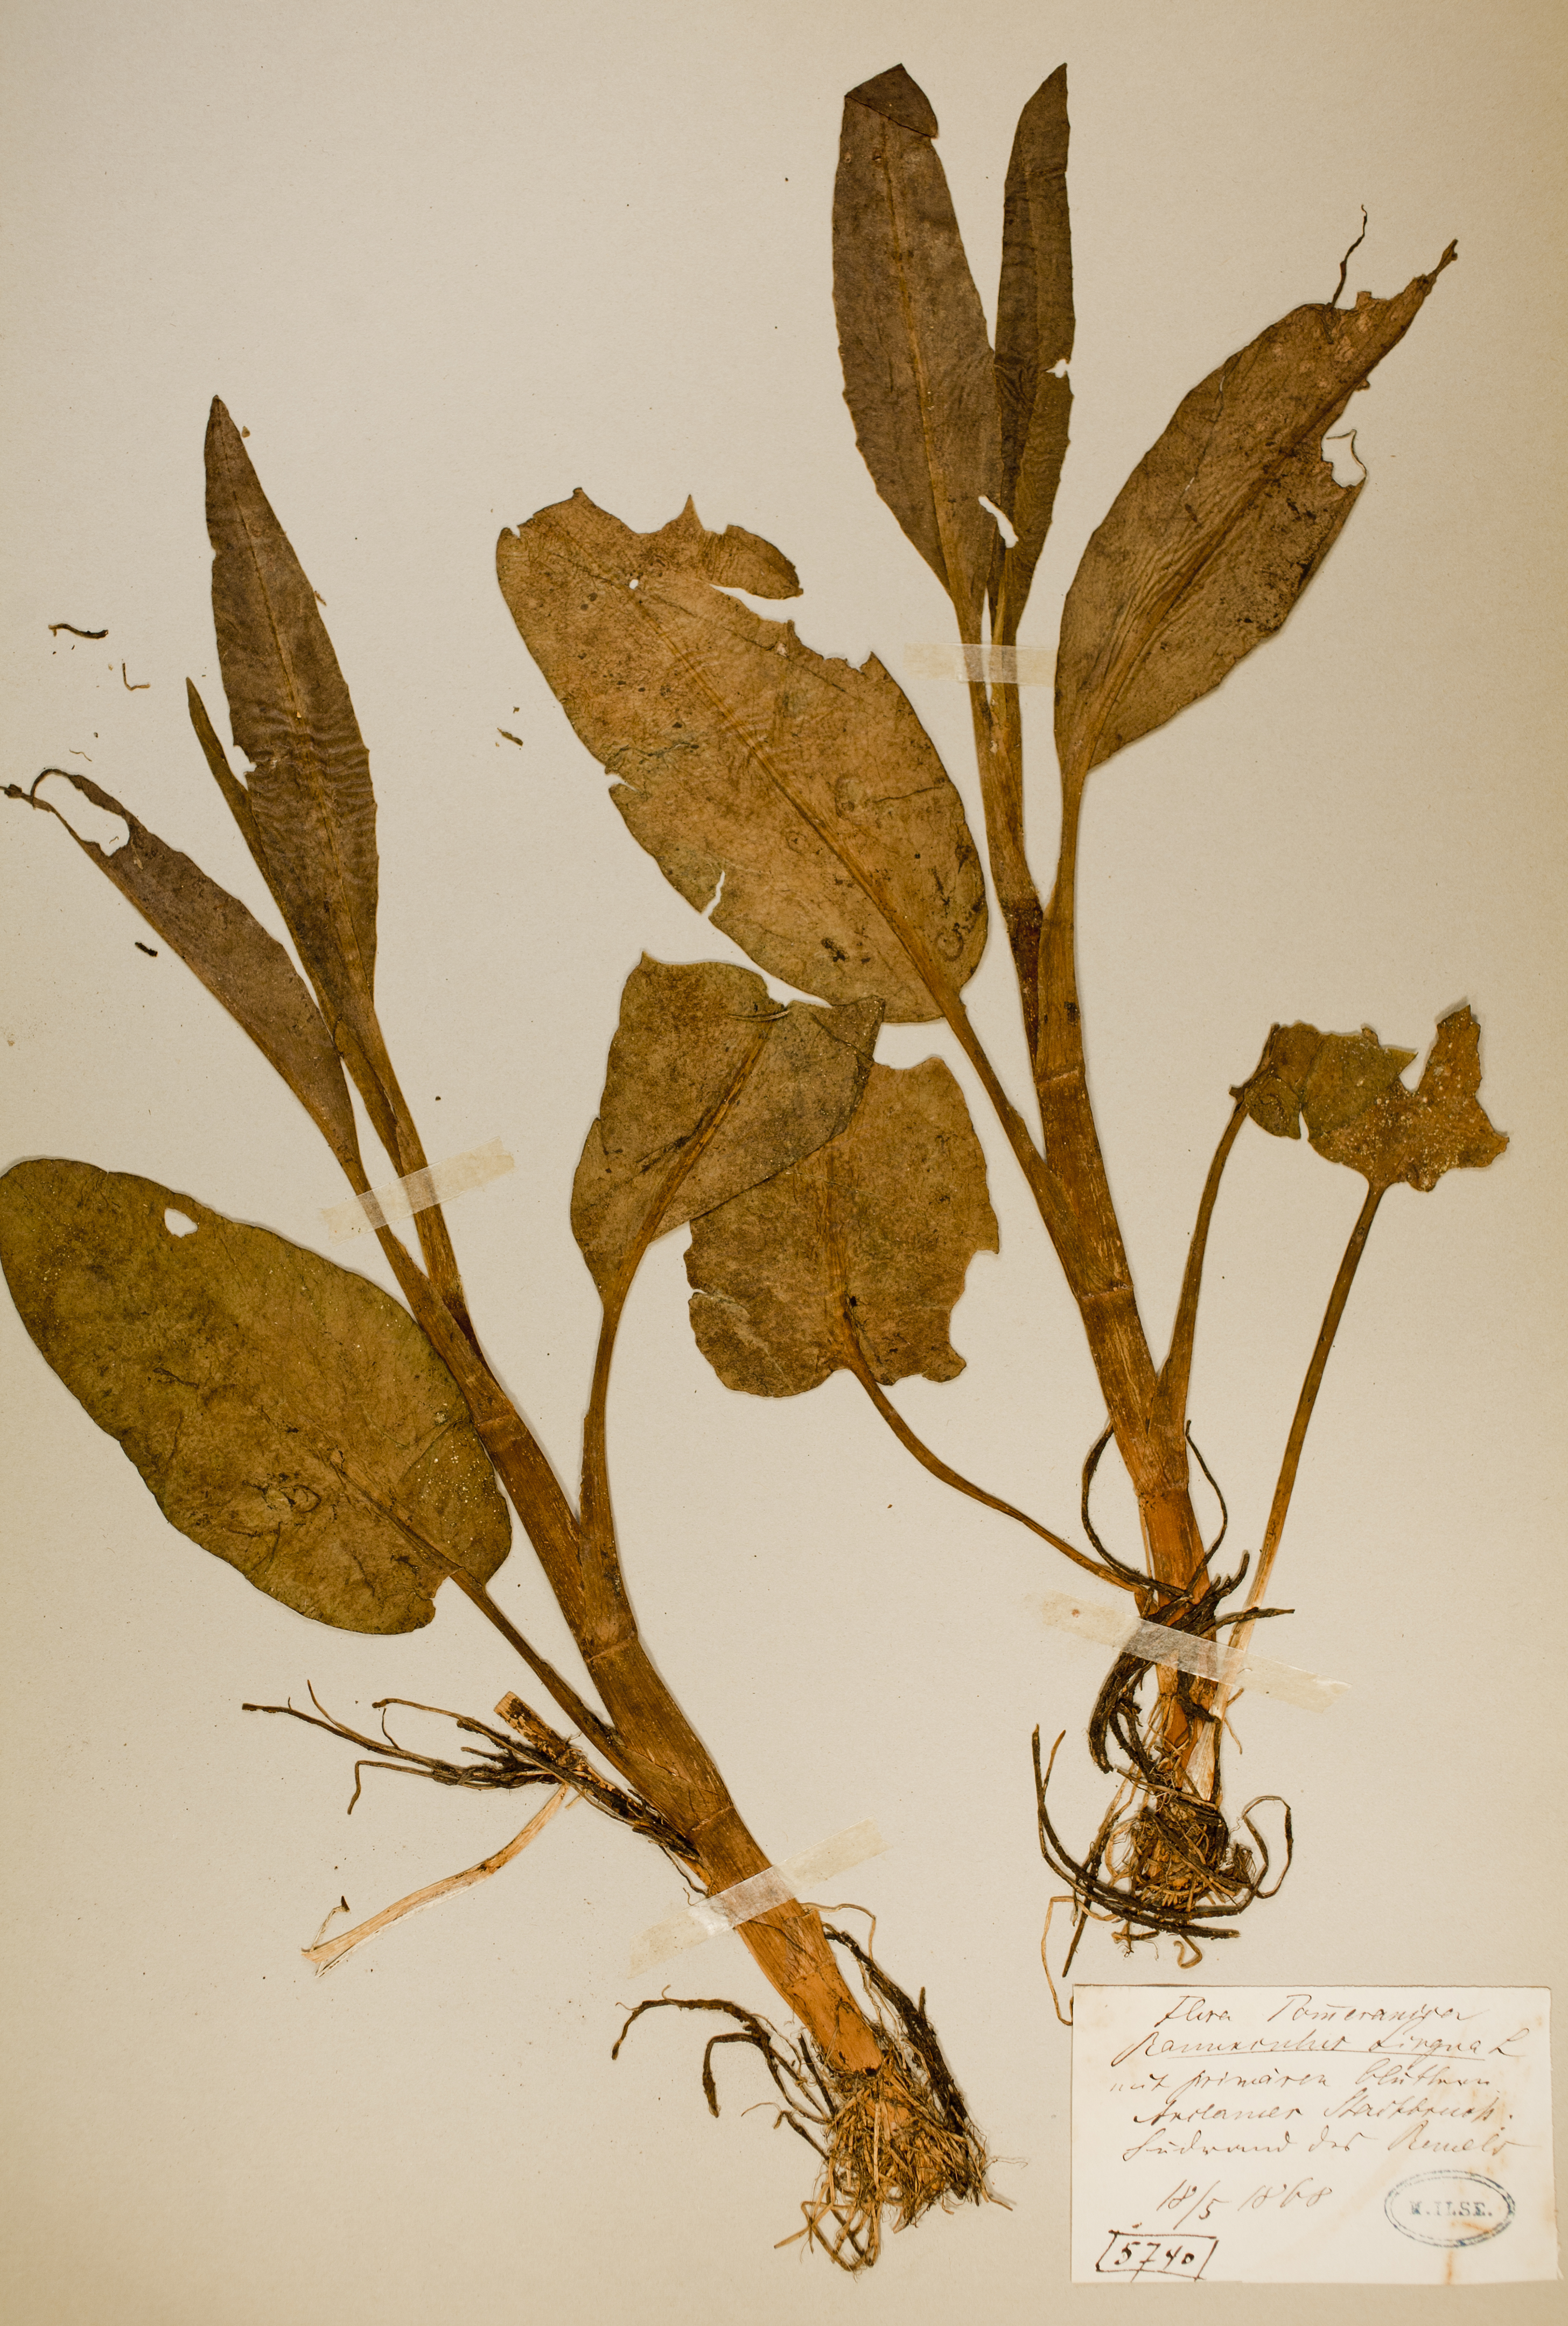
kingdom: Plantae
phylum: Tracheophyta
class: Magnoliopsida
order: Ranunculales
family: Ranunculaceae
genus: Ranunculus
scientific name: Ranunculus lingua
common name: Greater spearwort
